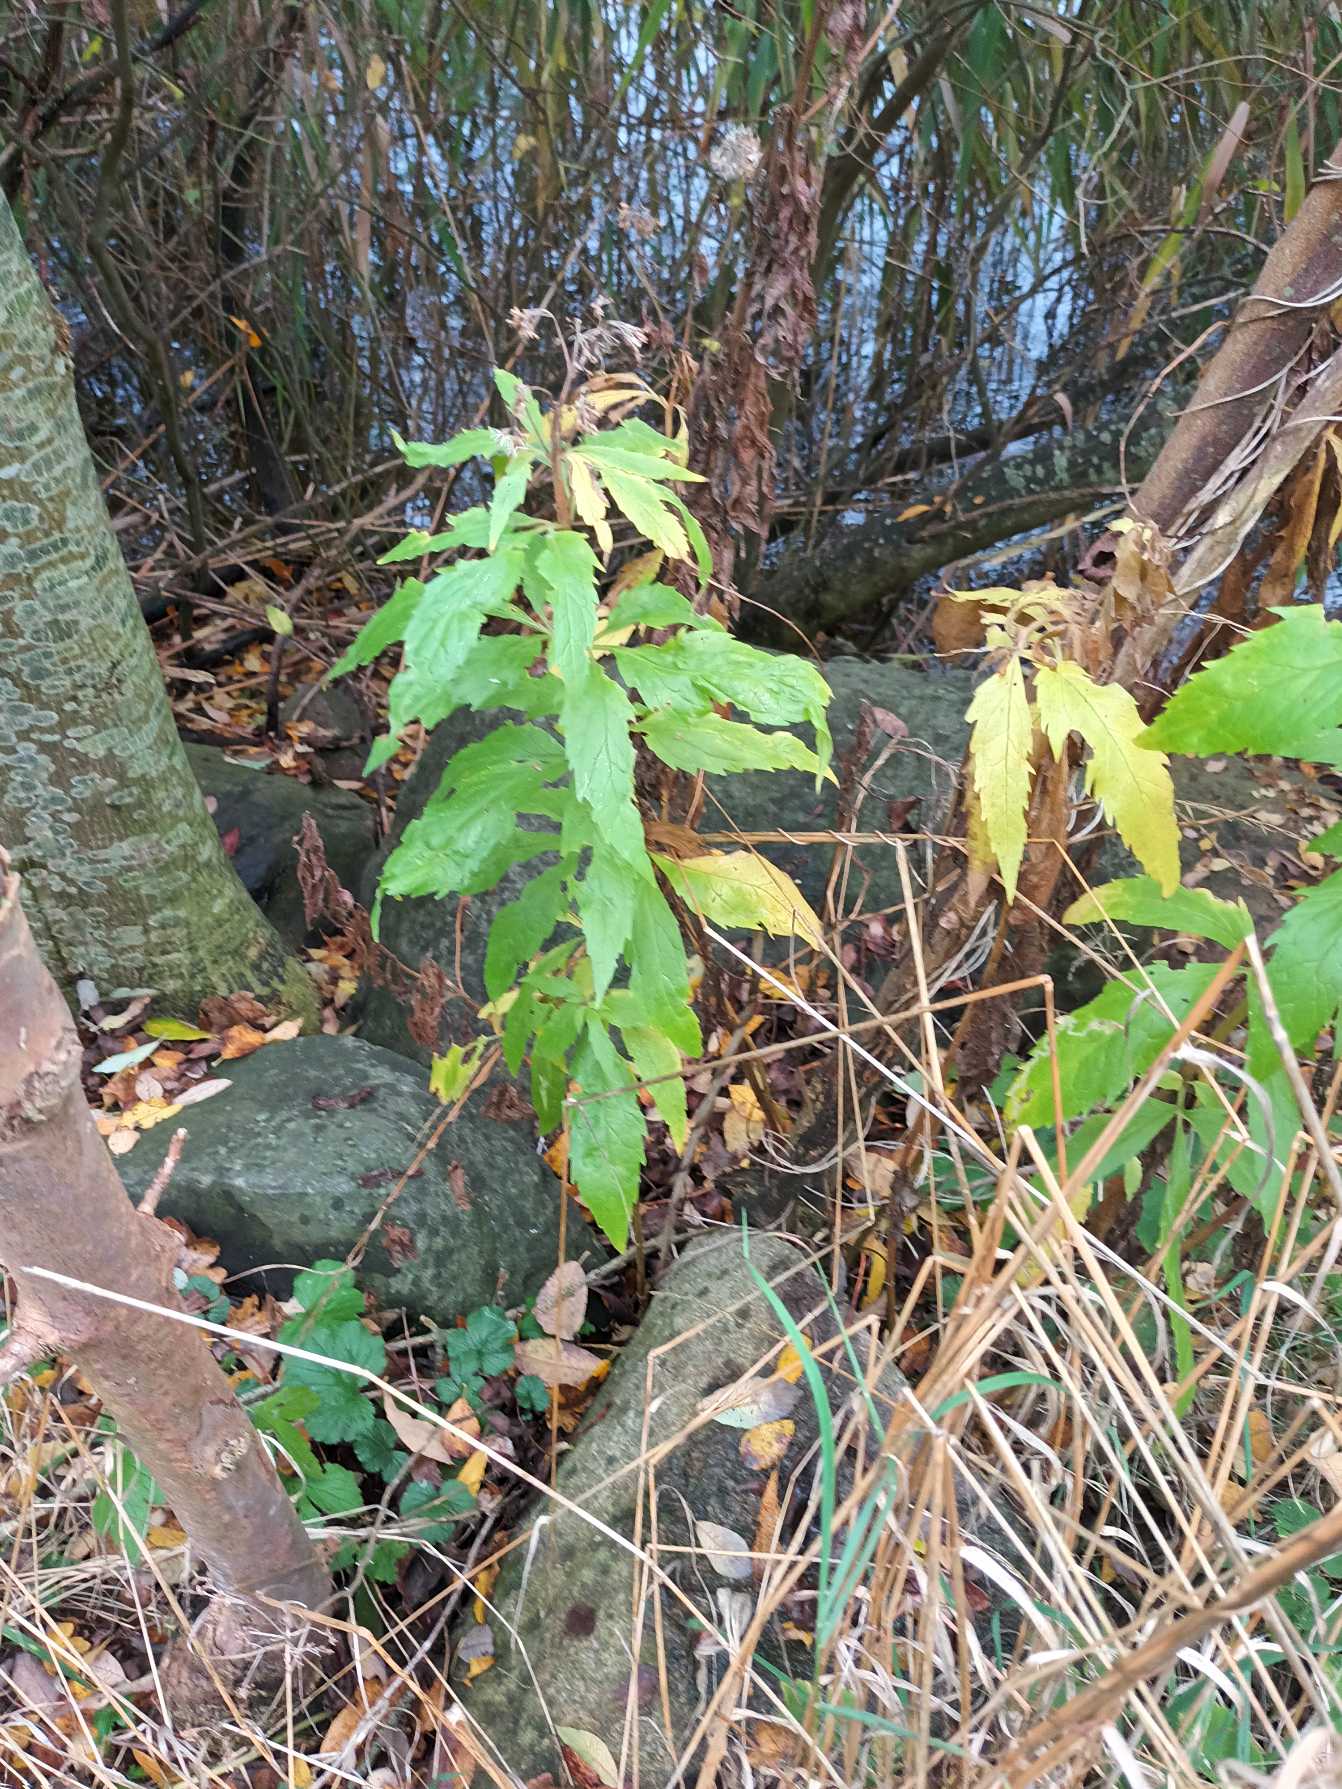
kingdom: Plantae
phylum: Tracheophyta
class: Magnoliopsida
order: Asterales
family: Asteraceae
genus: Eupatorium
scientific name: Eupatorium cannabinum
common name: Hjortetrøst
